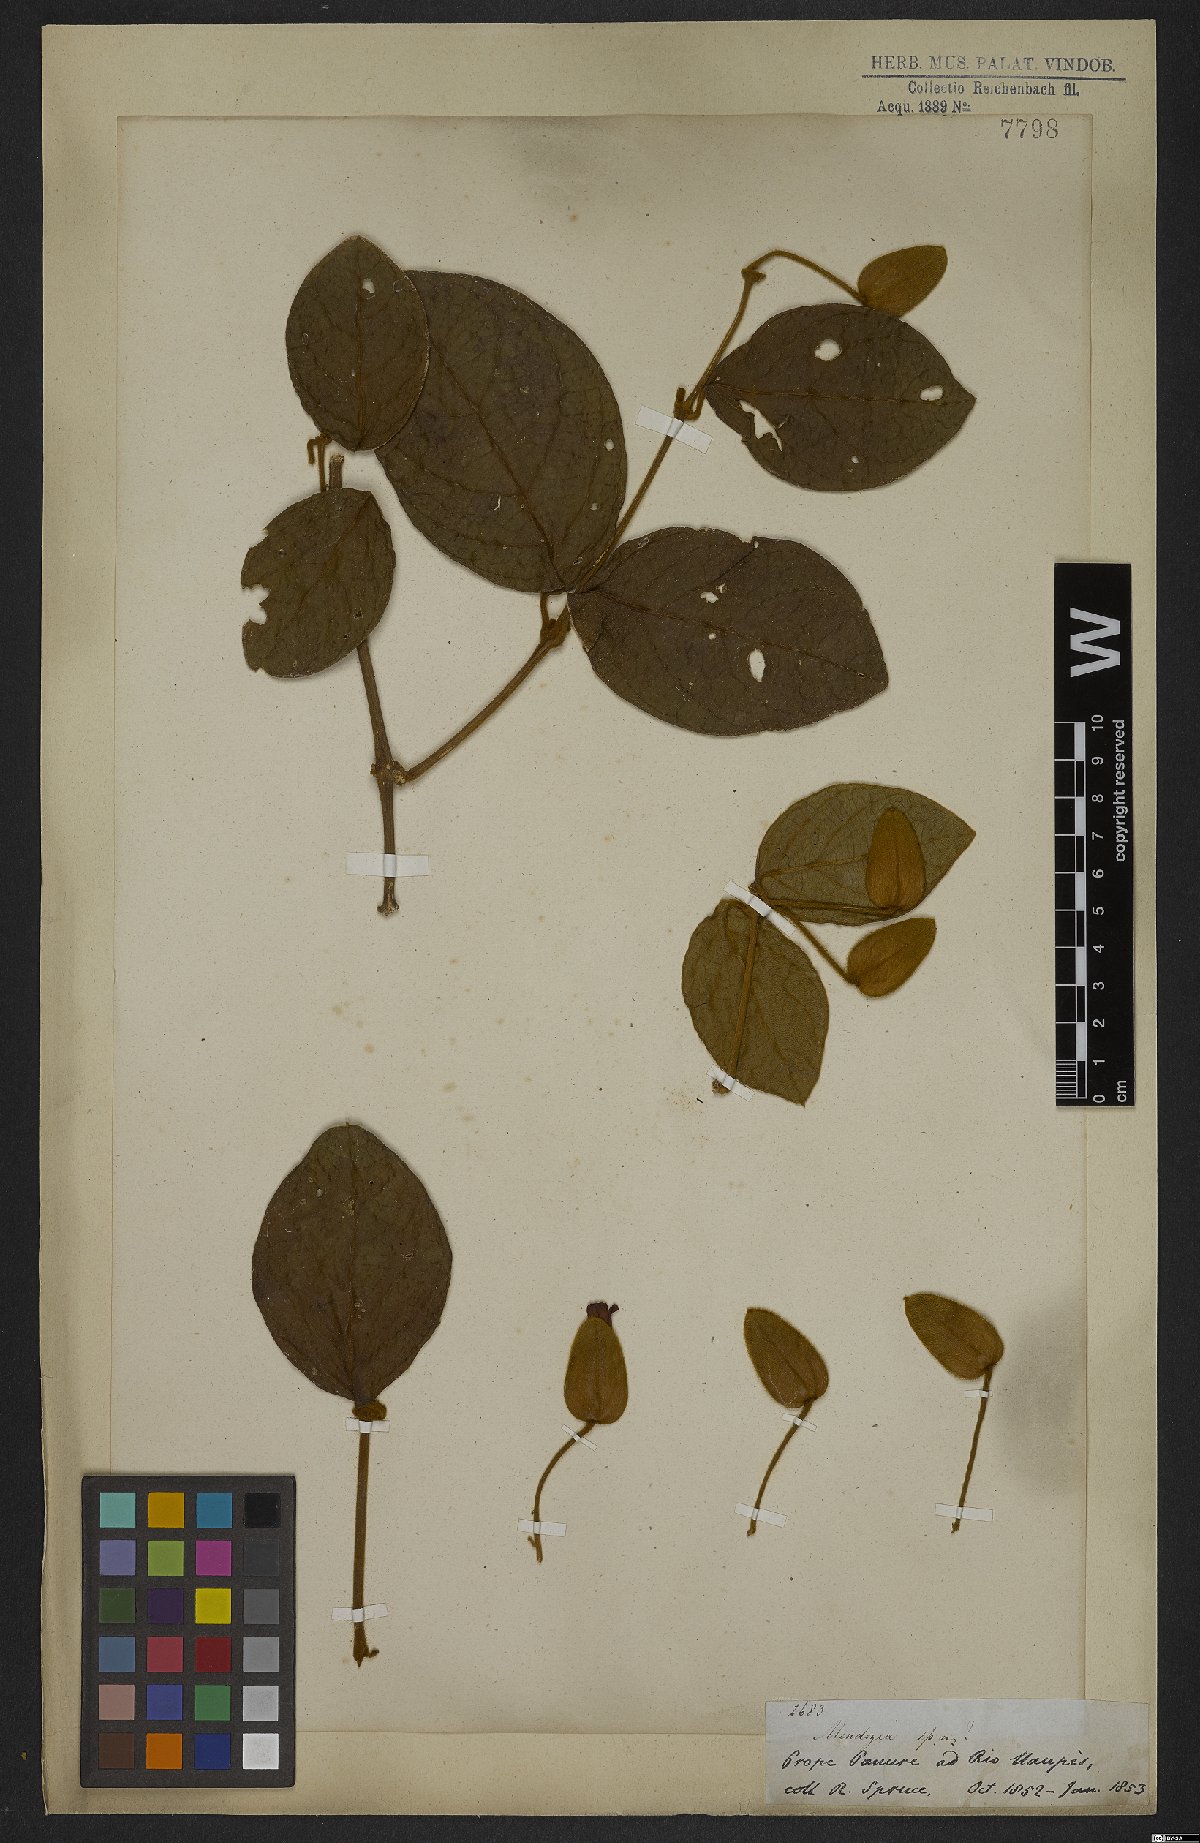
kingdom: Plantae
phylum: Tracheophyta
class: Magnoliopsida
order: Lamiales
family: Acanthaceae
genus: Mendoncia
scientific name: Mendoncia
